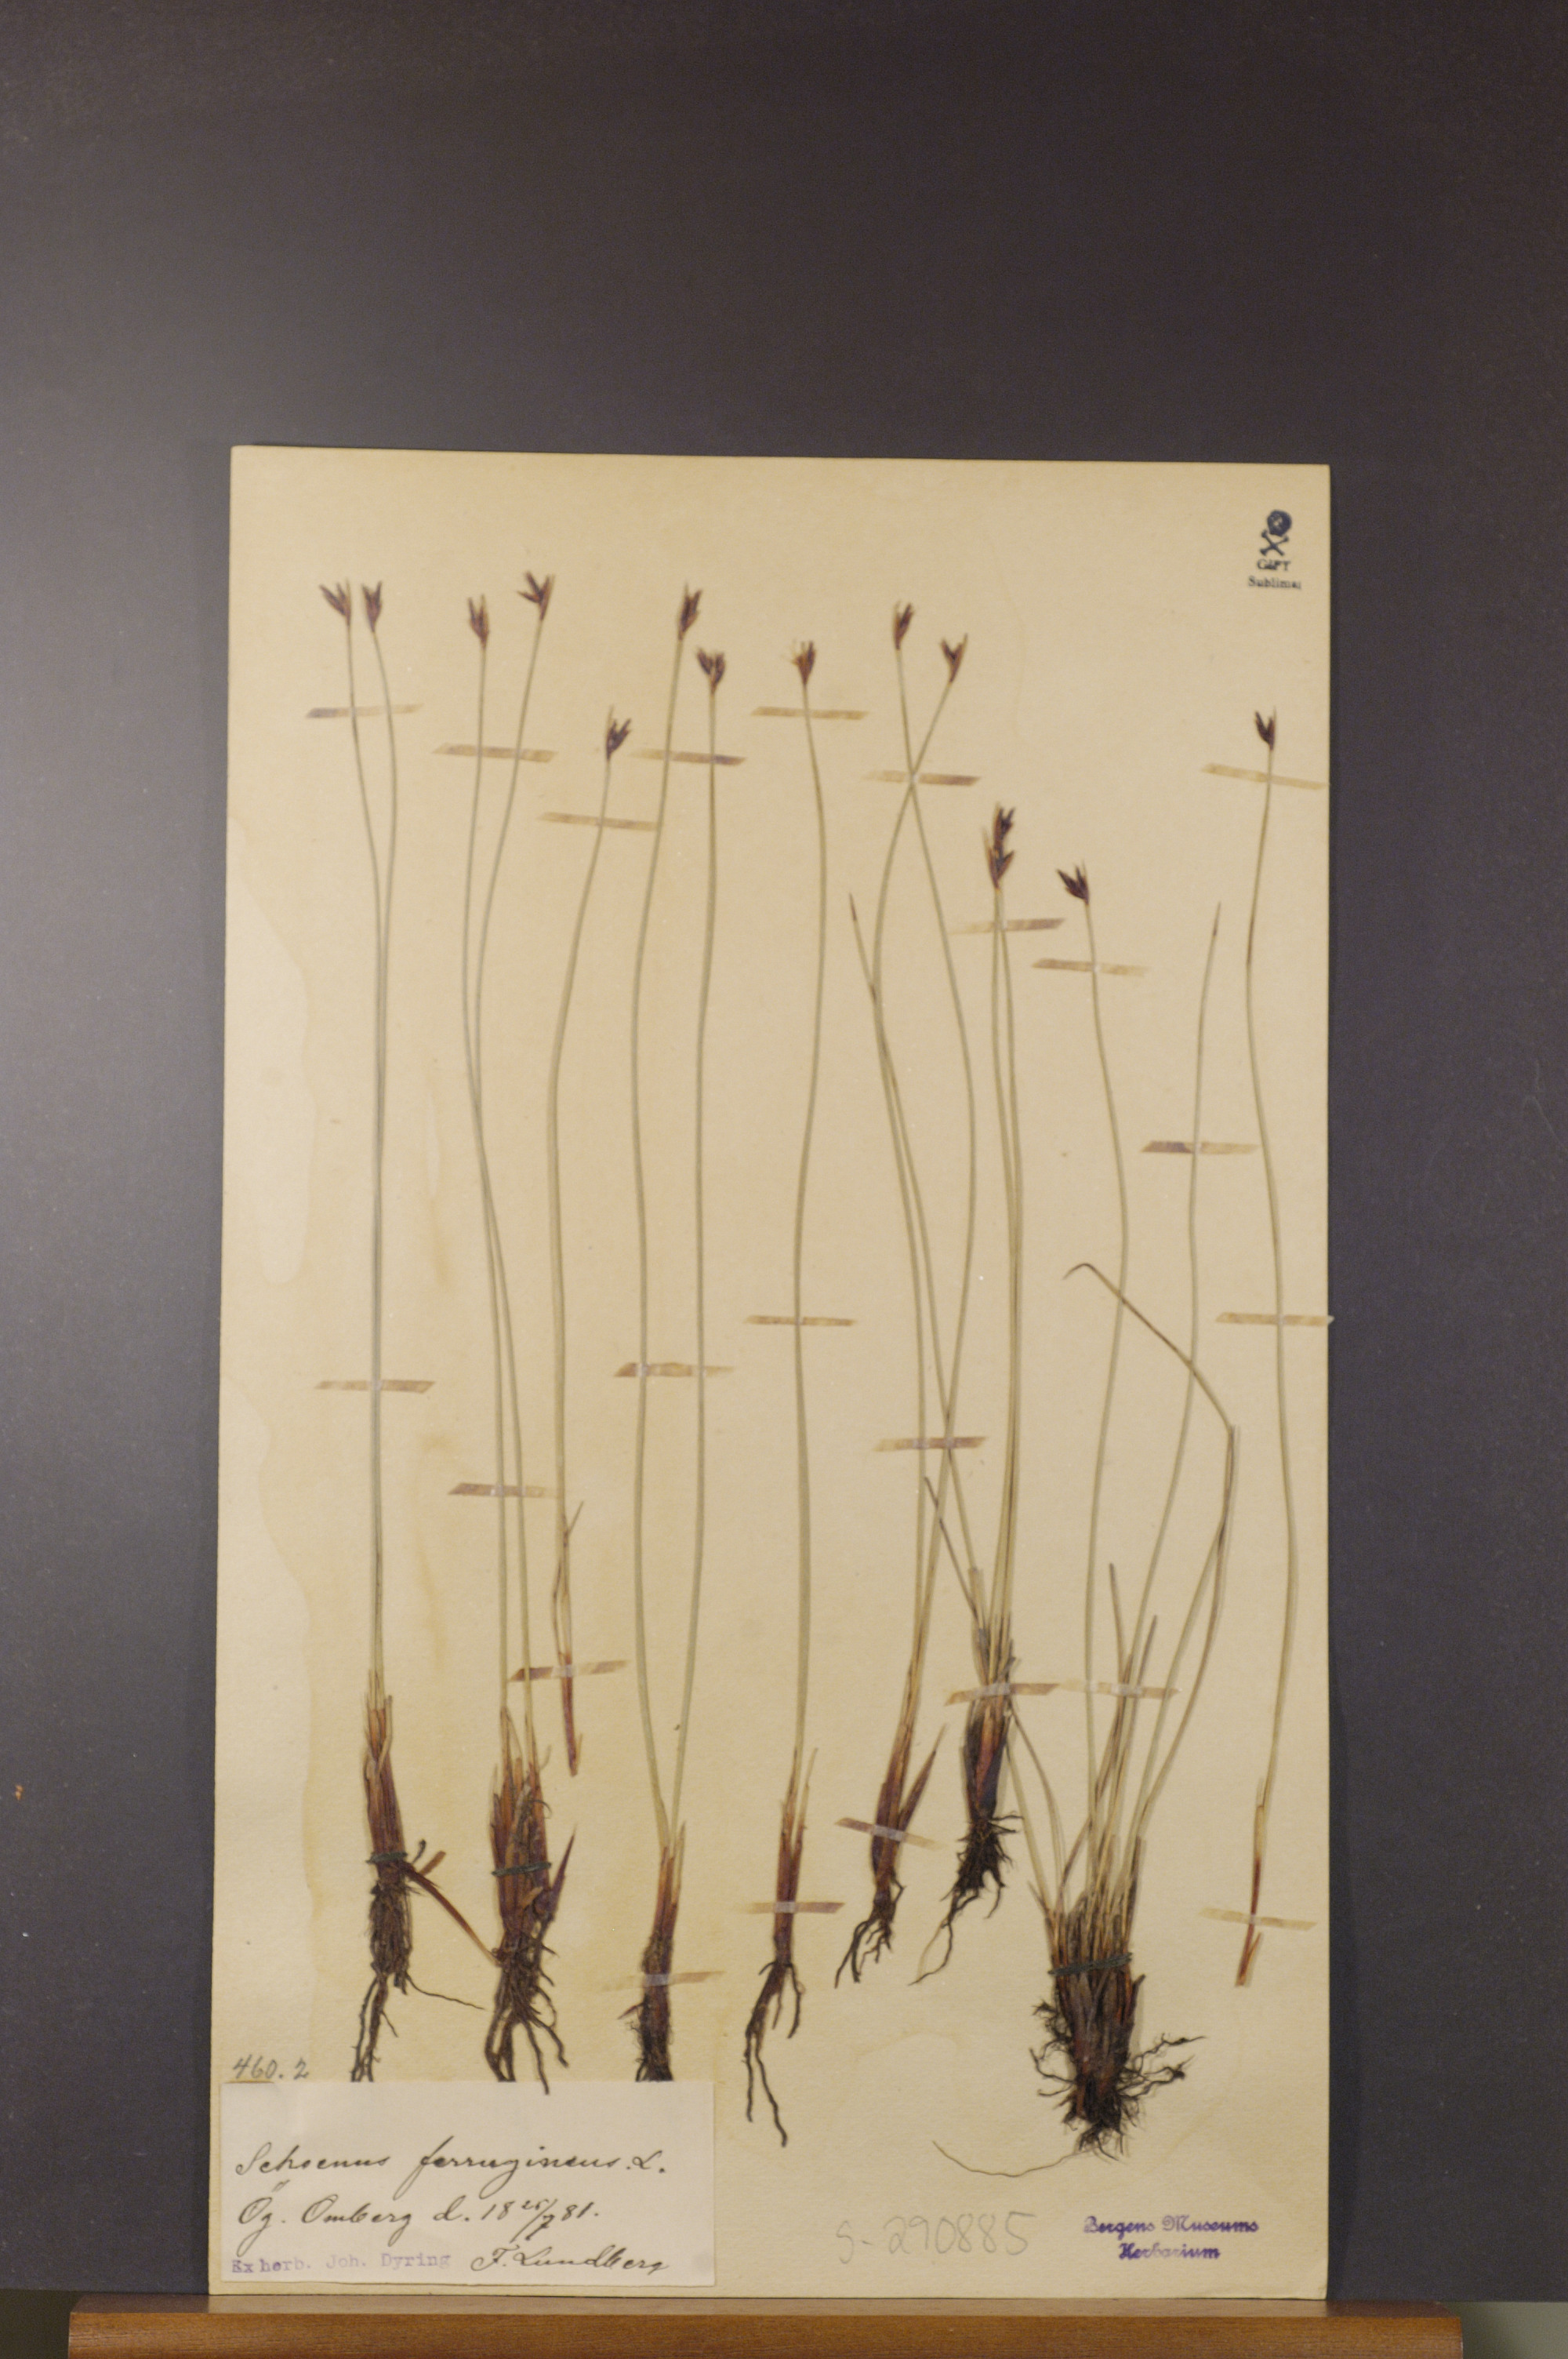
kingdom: Plantae
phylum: Tracheophyta
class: Liliopsida
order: Poales
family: Cyperaceae
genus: Schoenus
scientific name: Schoenus ferrugineus
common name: Brown bog-rush
